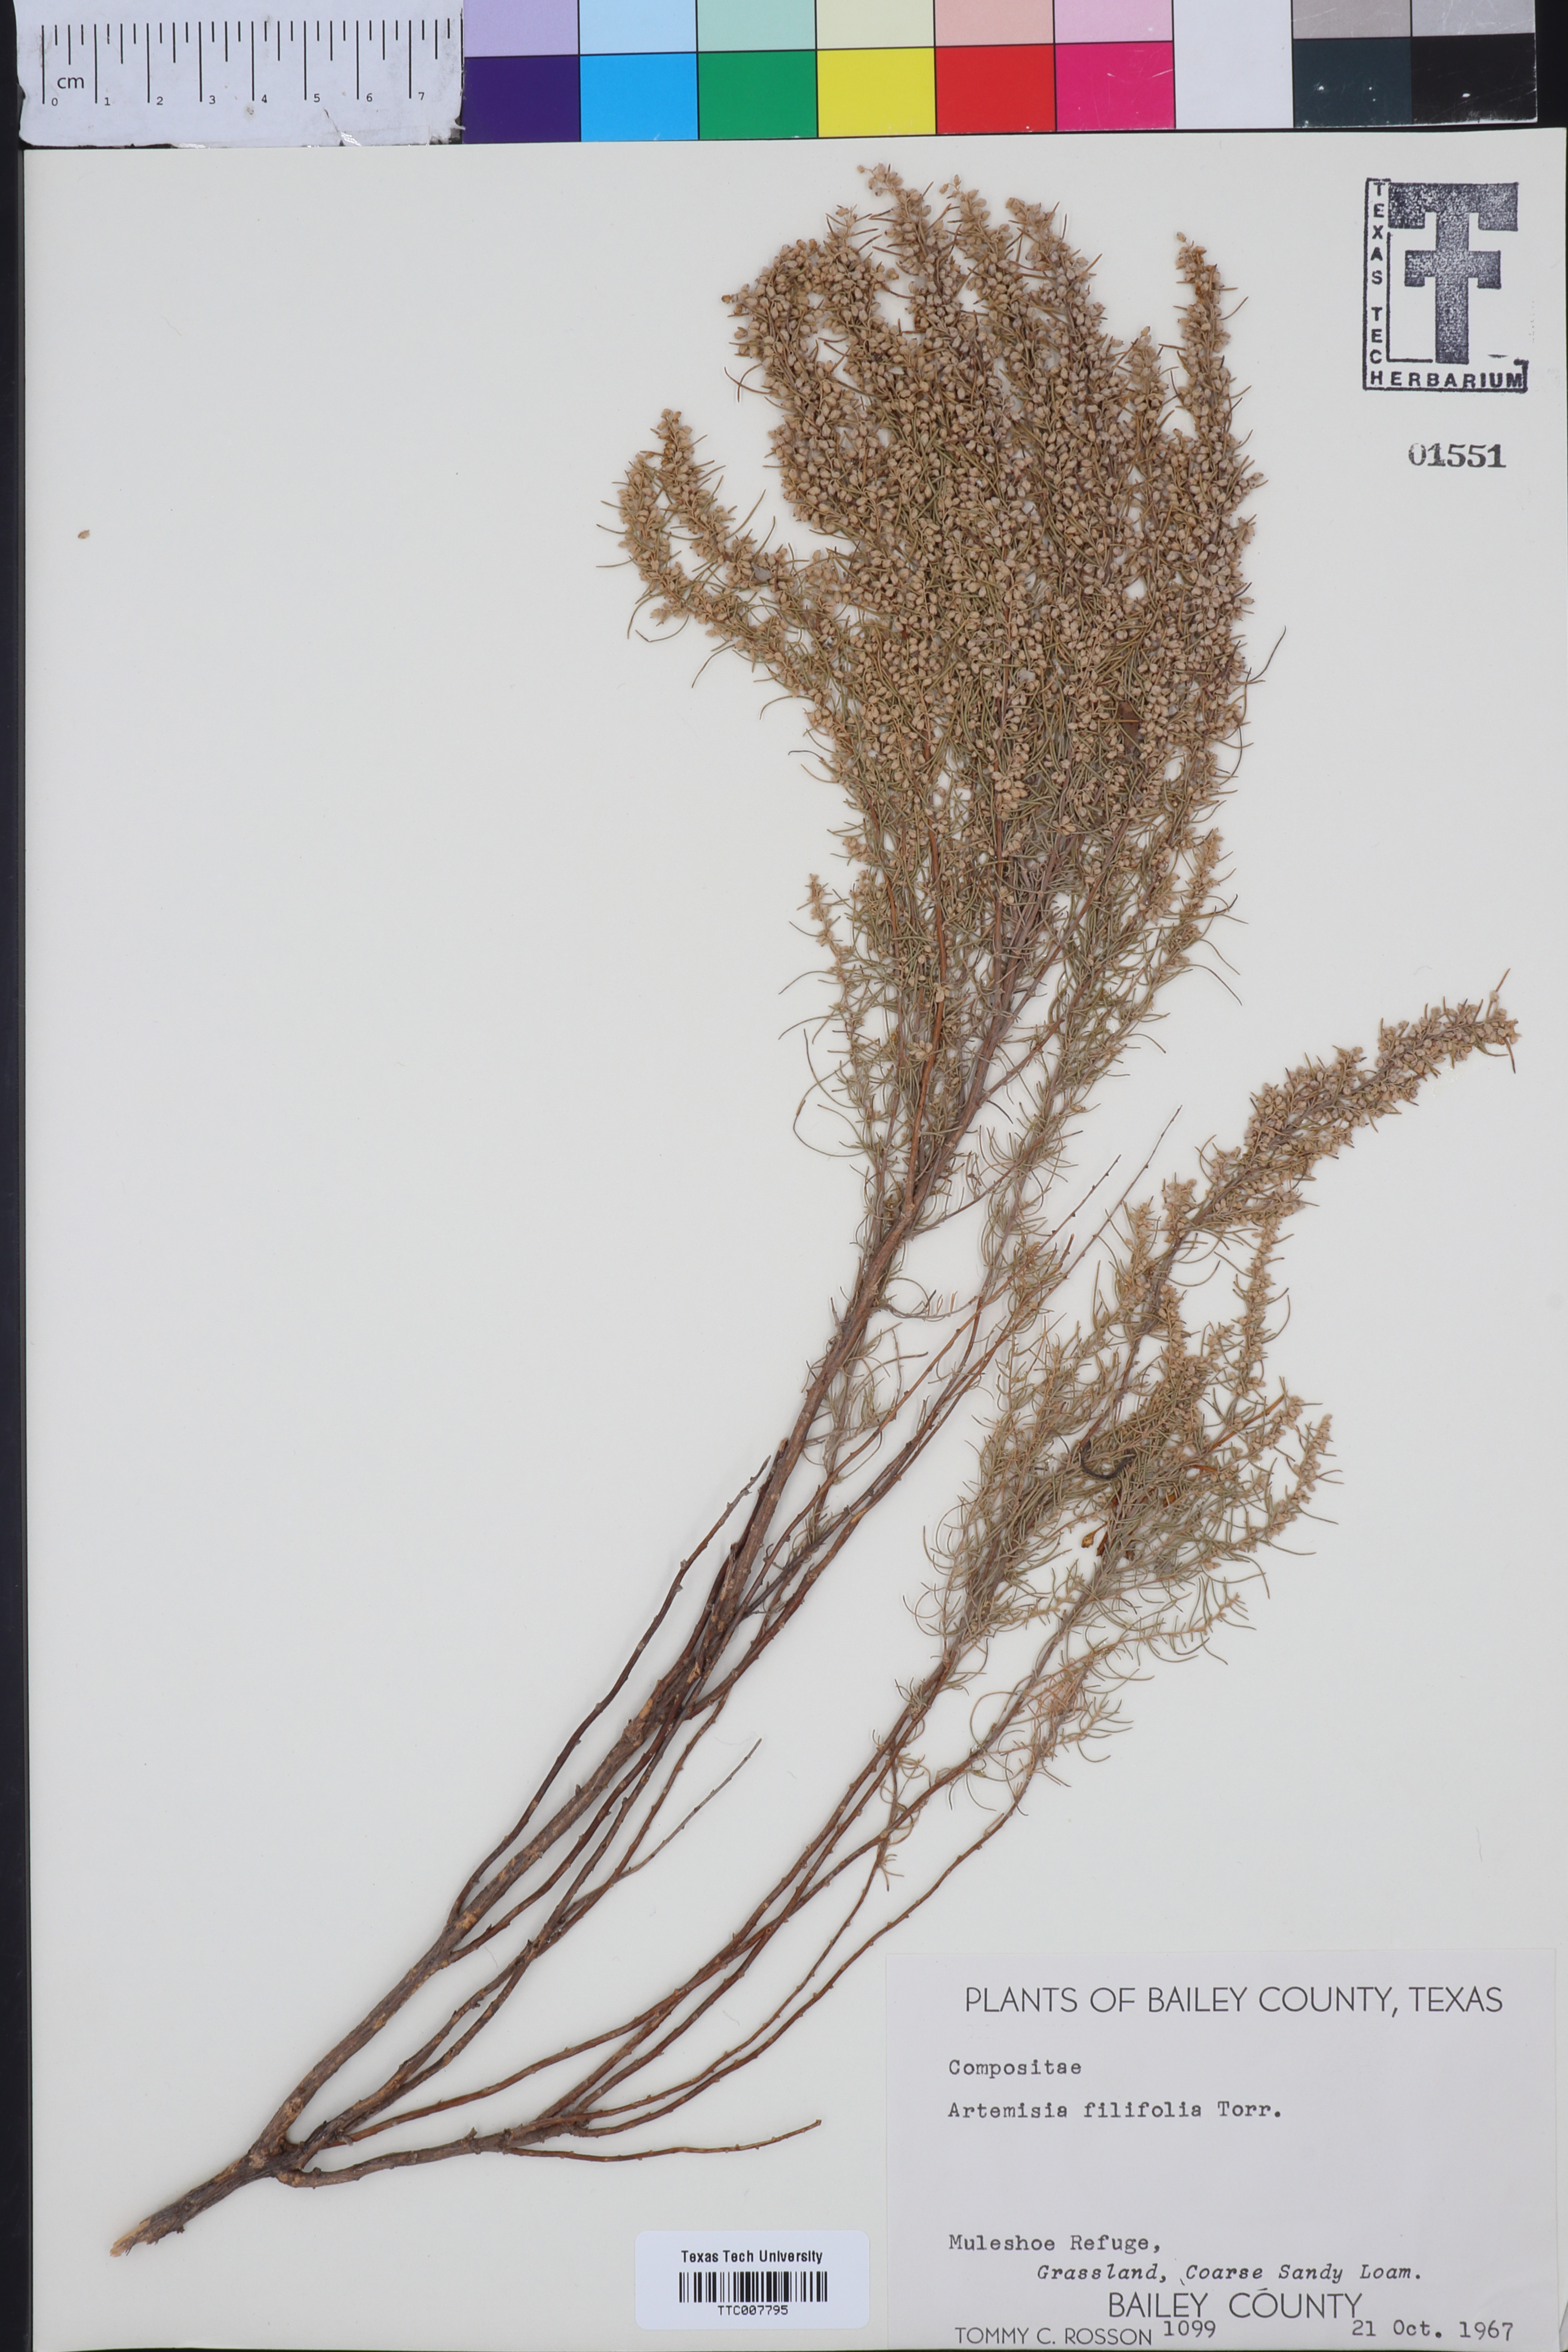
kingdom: Plantae
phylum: Tracheophyta
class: Magnoliopsida
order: Asterales
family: Asteraceae
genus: Artemisia
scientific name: Artemisia filifolia
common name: Sand-sage
